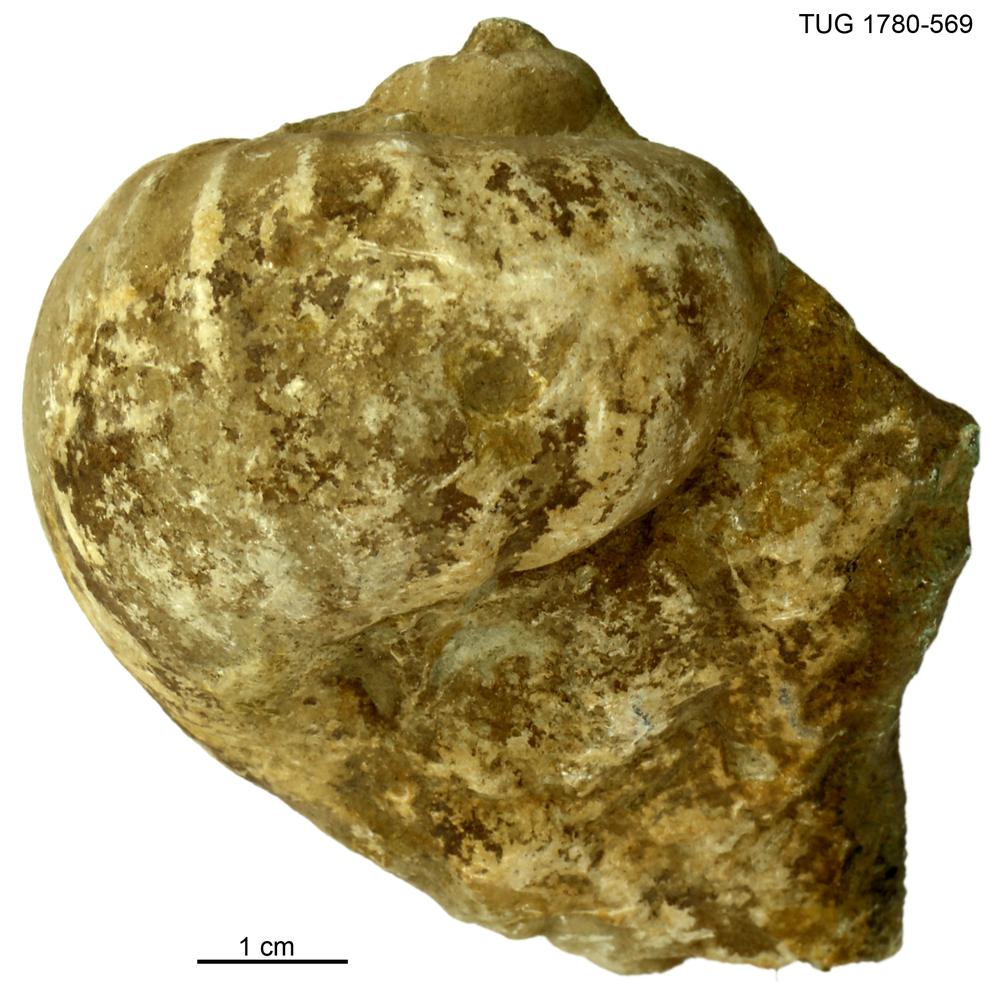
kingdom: Animalia
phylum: Mollusca
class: Gastropoda
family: Holopeidae
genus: Holopea
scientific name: Holopea ampullacea
